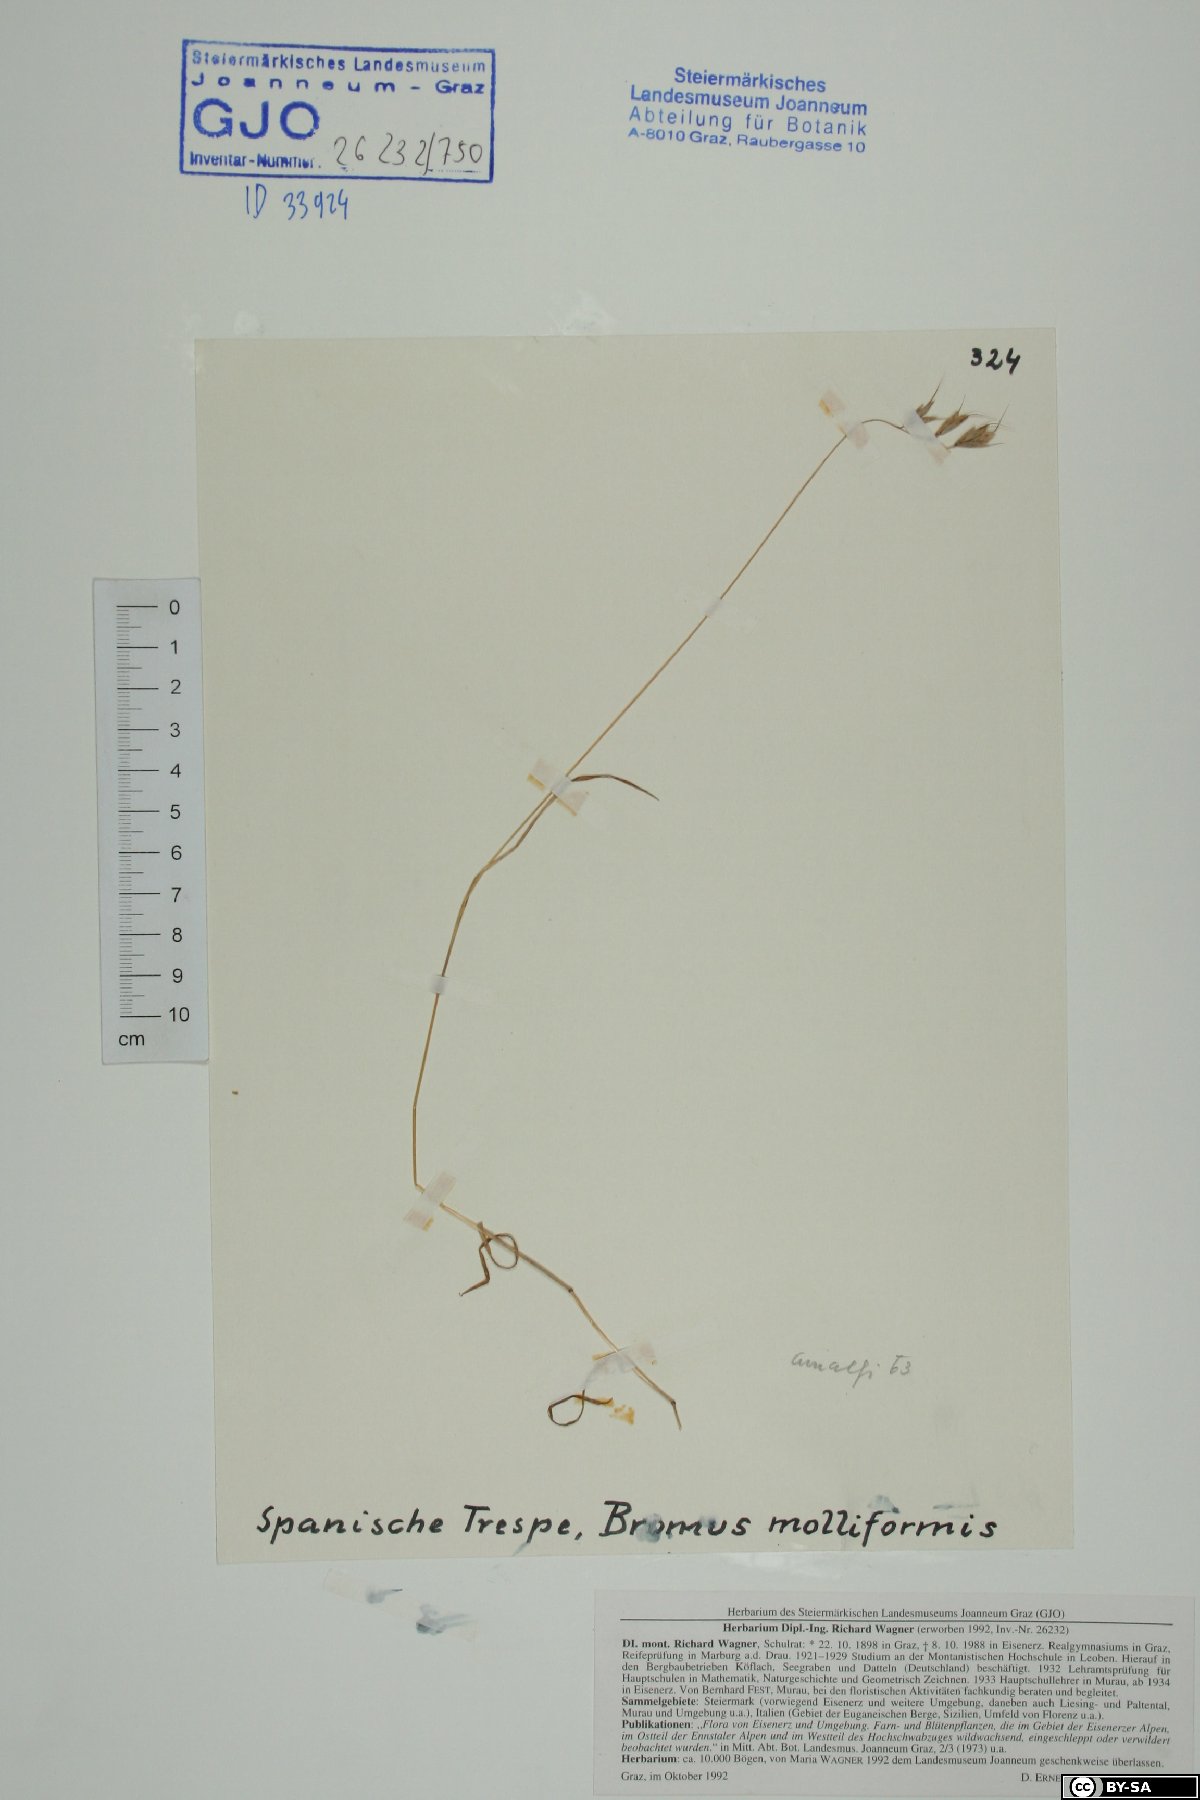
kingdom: Plantae
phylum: Tracheophyta
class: Liliopsida
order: Poales
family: Poaceae
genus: Bromus
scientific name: Bromus hordeaceus
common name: Soft brome
